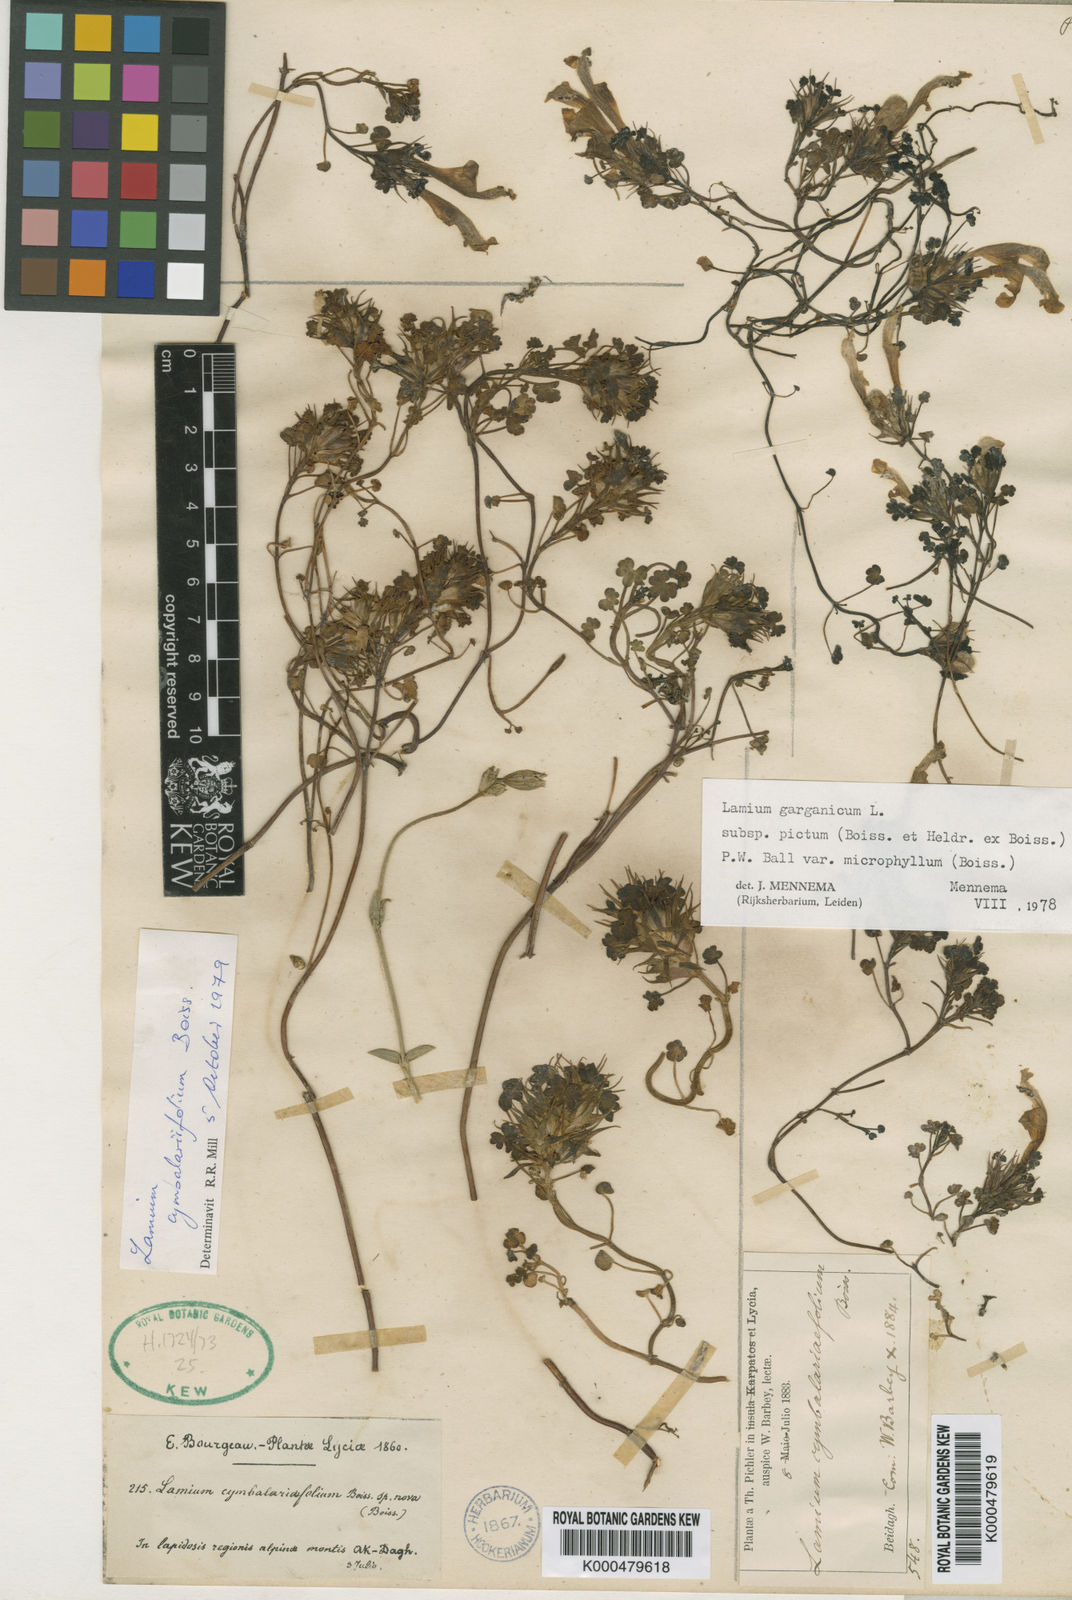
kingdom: Plantae
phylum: Tracheophyta
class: Magnoliopsida
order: Lamiales
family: Lamiaceae
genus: Lamium
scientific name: Lamium garganicum
